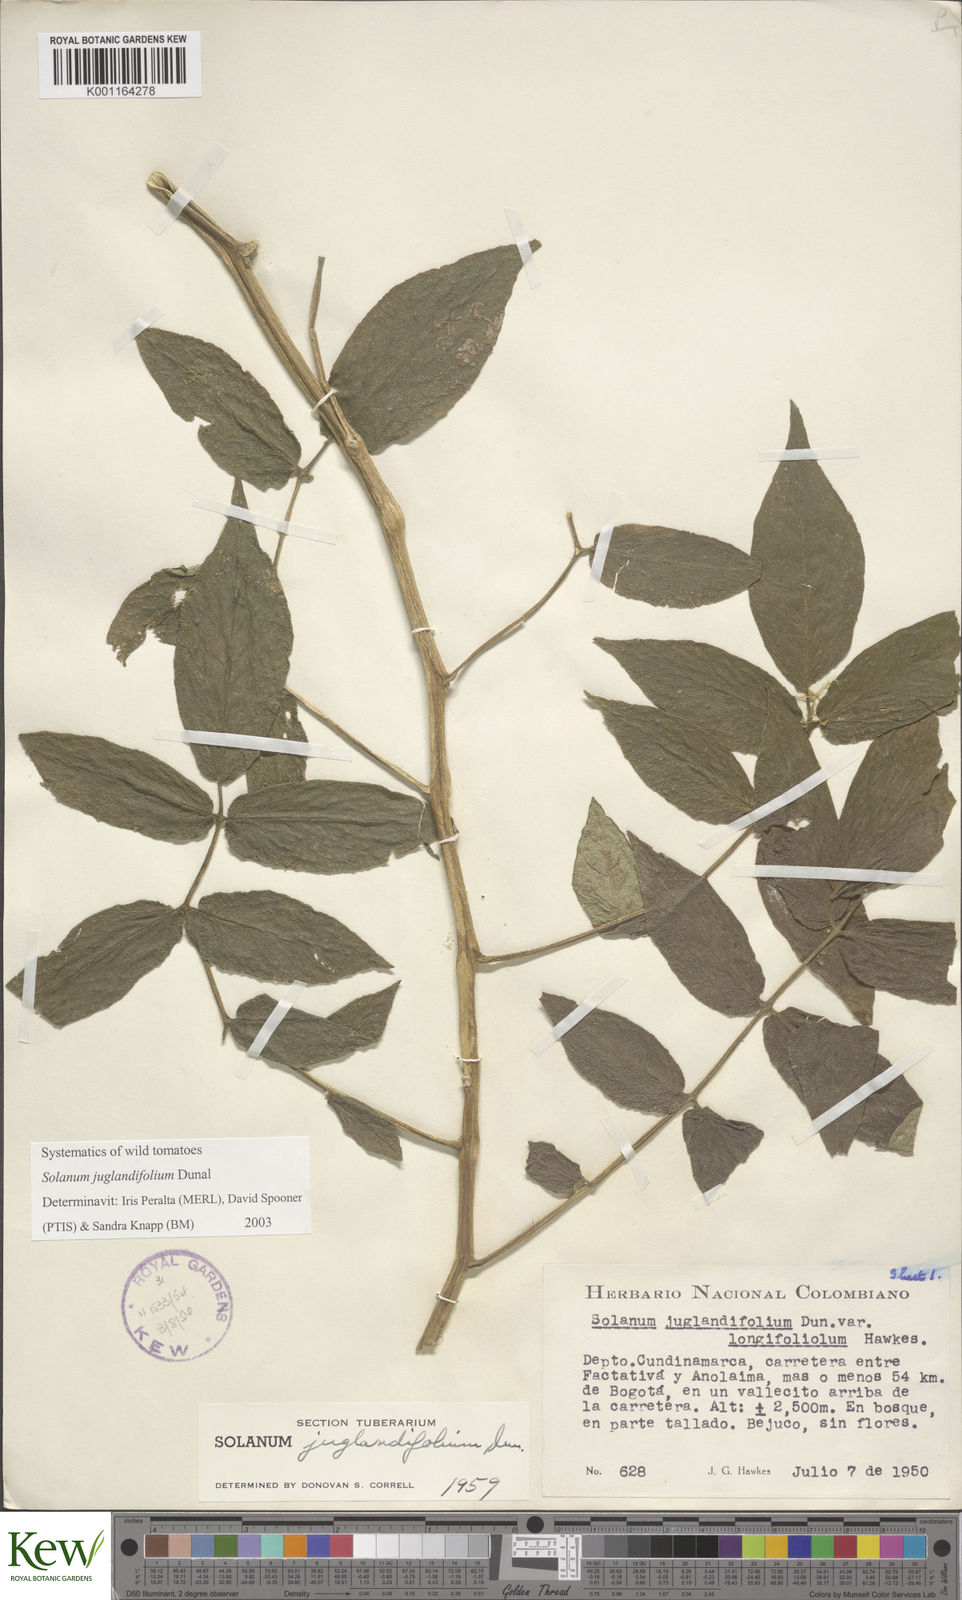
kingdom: Plantae
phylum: Tracheophyta
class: Magnoliopsida
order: Solanales
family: Solanaceae
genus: Solanum
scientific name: Solanum juglandifolium
